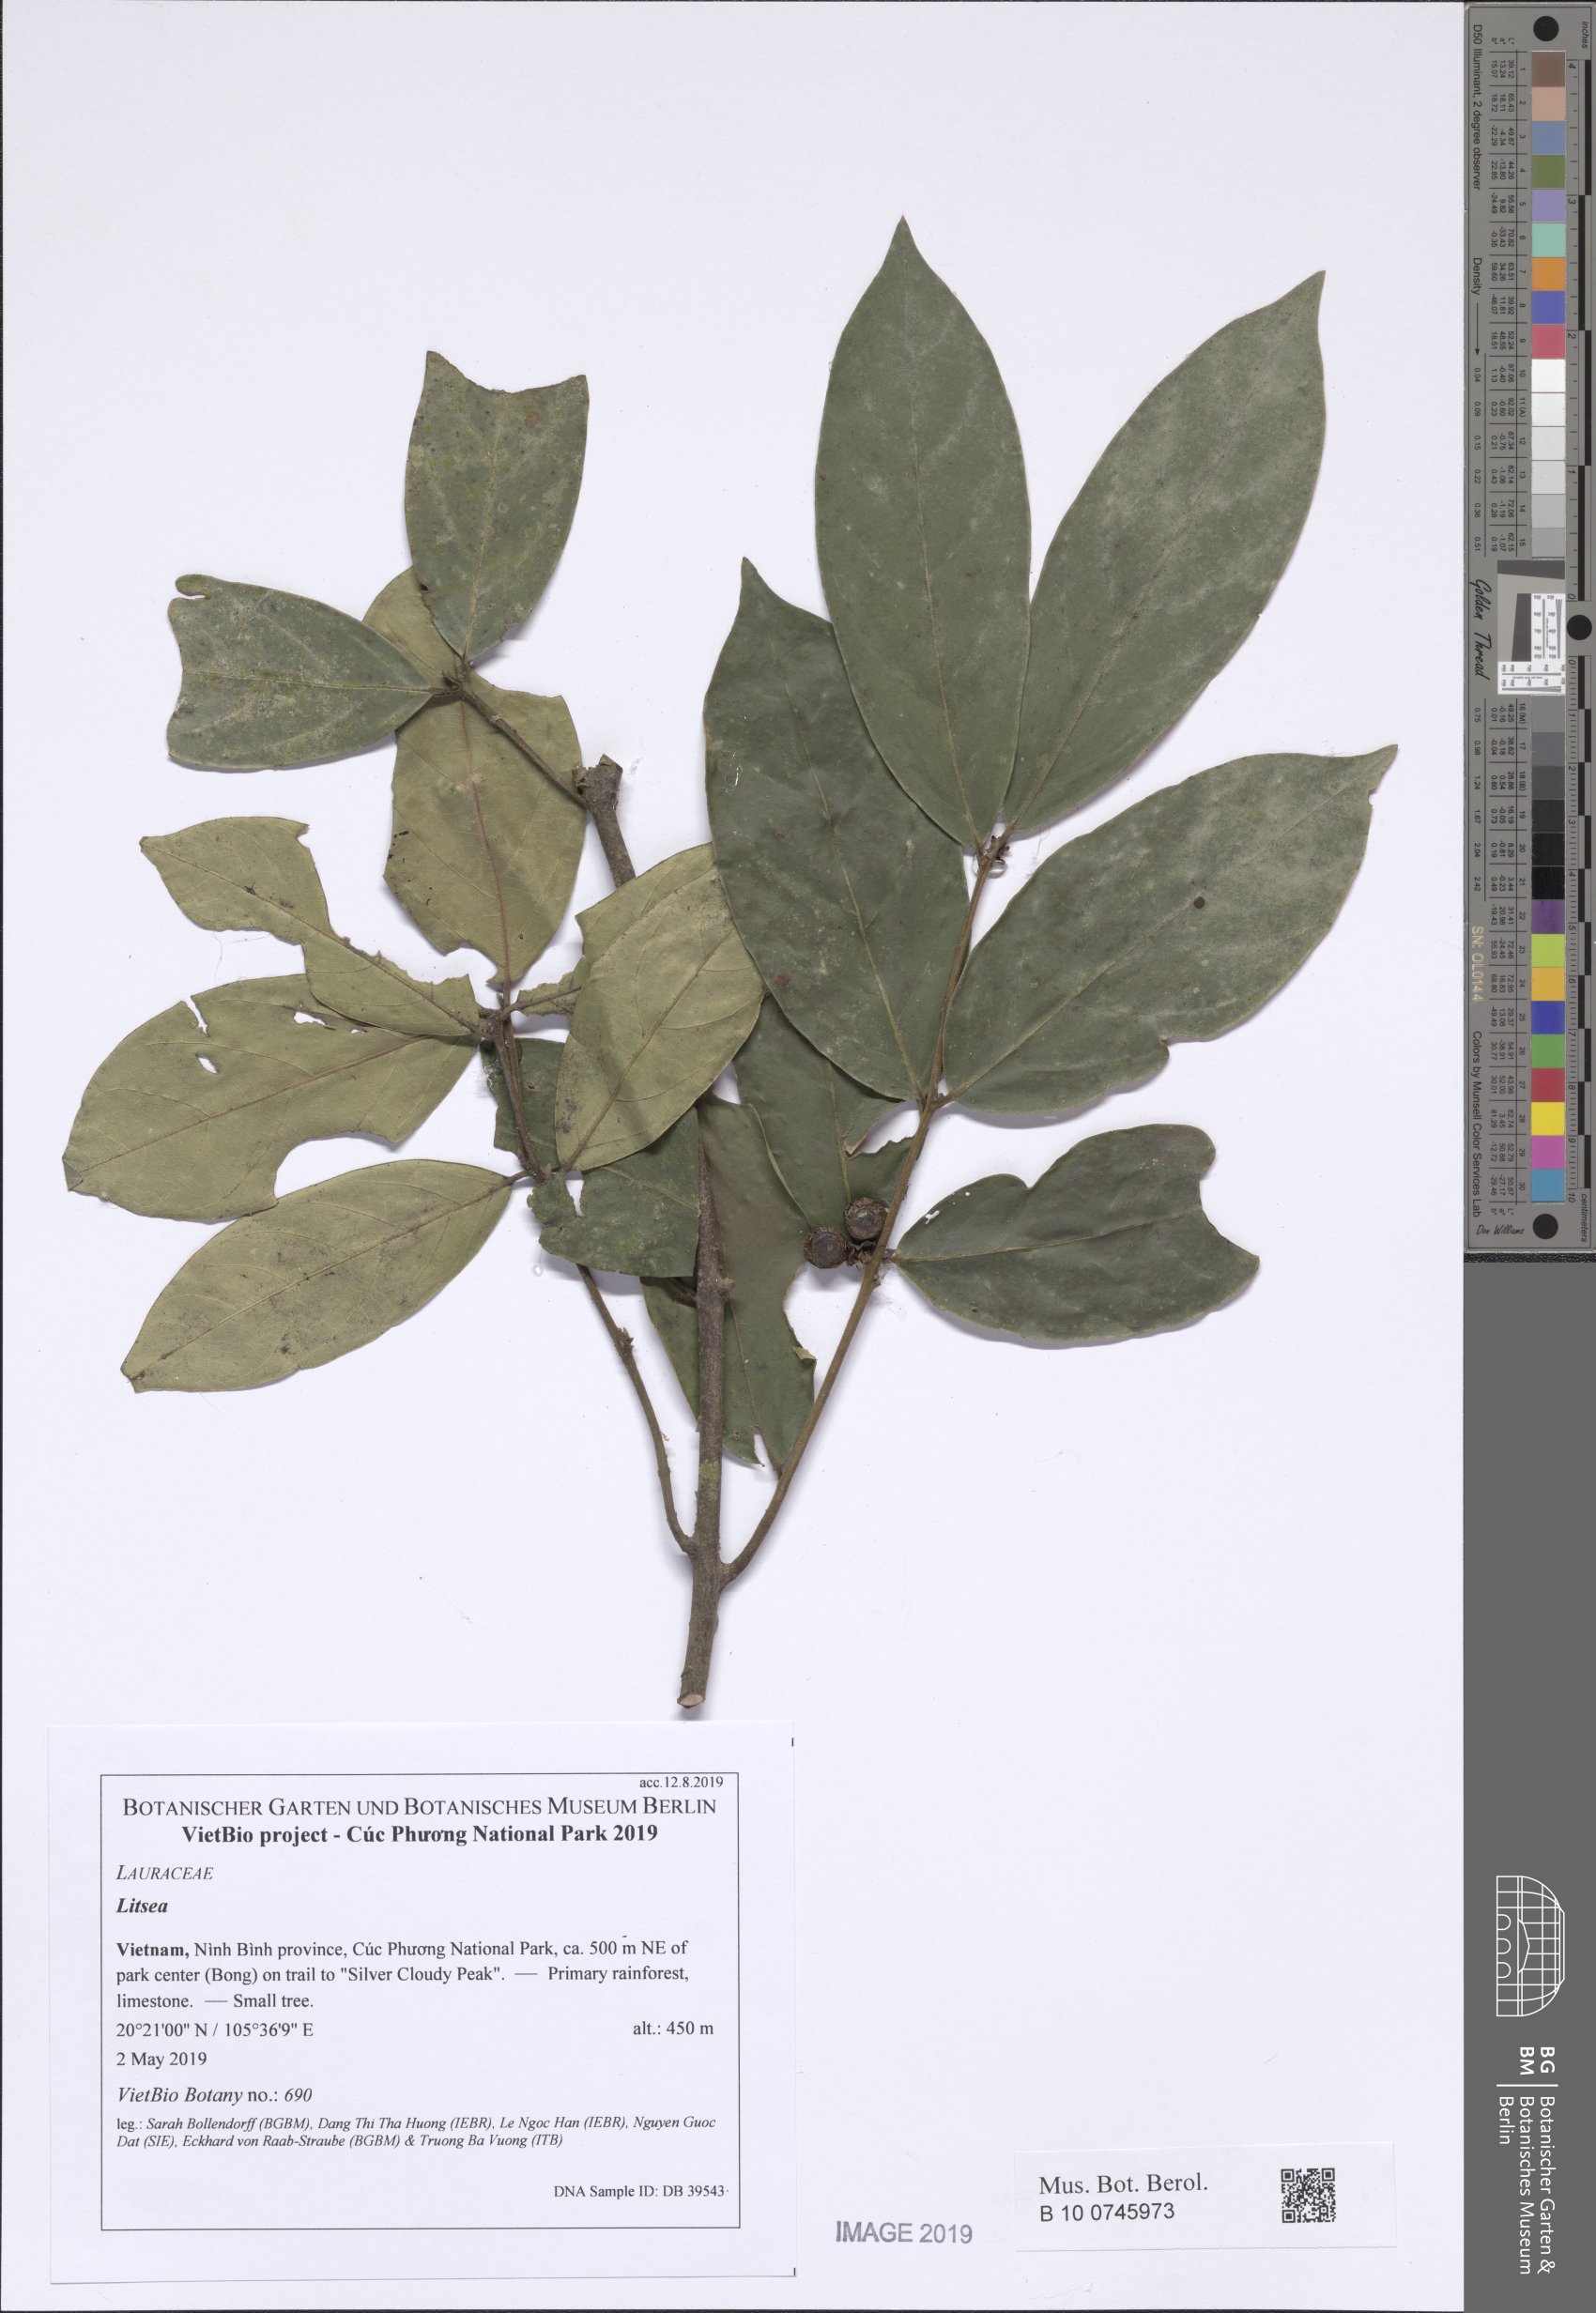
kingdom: Plantae
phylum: Tracheophyta
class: Magnoliopsida
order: Laurales
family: Lauraceae
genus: Litsea
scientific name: Litsea
